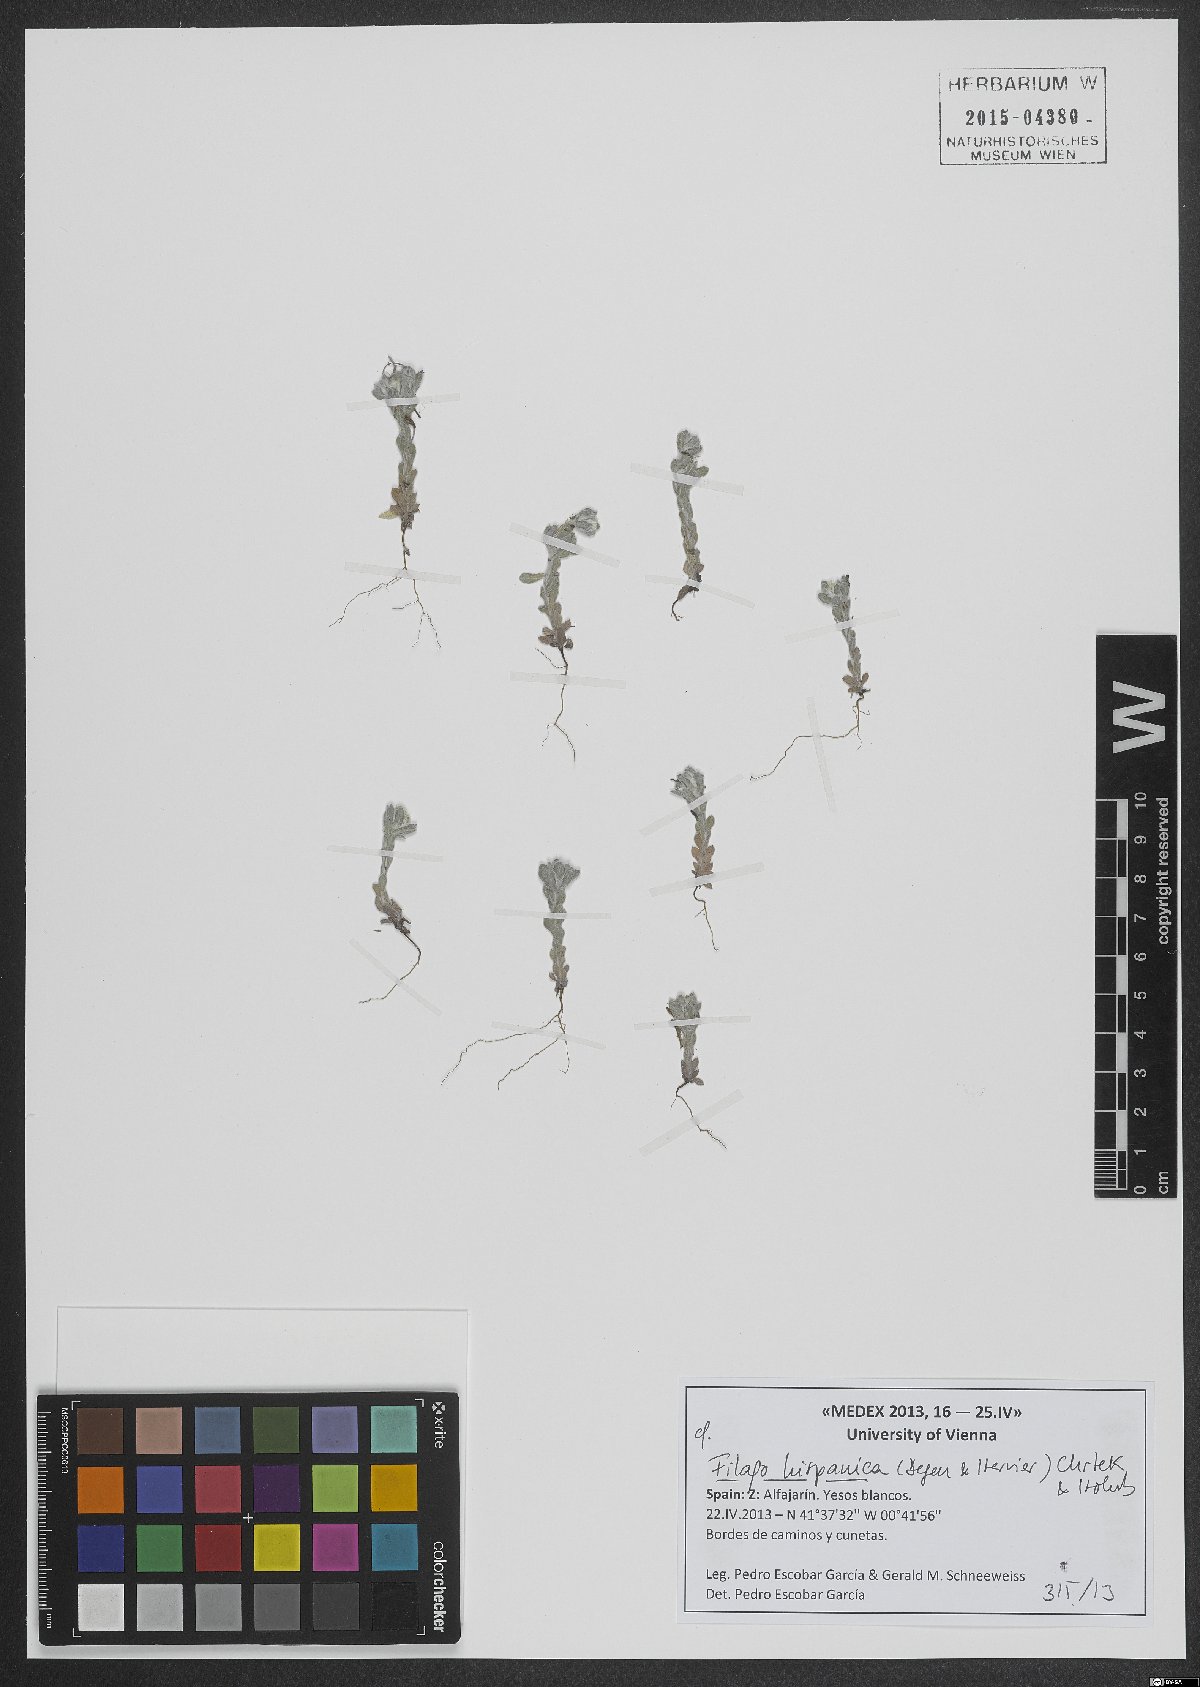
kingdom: Plantae
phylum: Tracheophyta
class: Magnoliopsida
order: Asterales
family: Asteraceae
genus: Filago
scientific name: Filago hispanica
